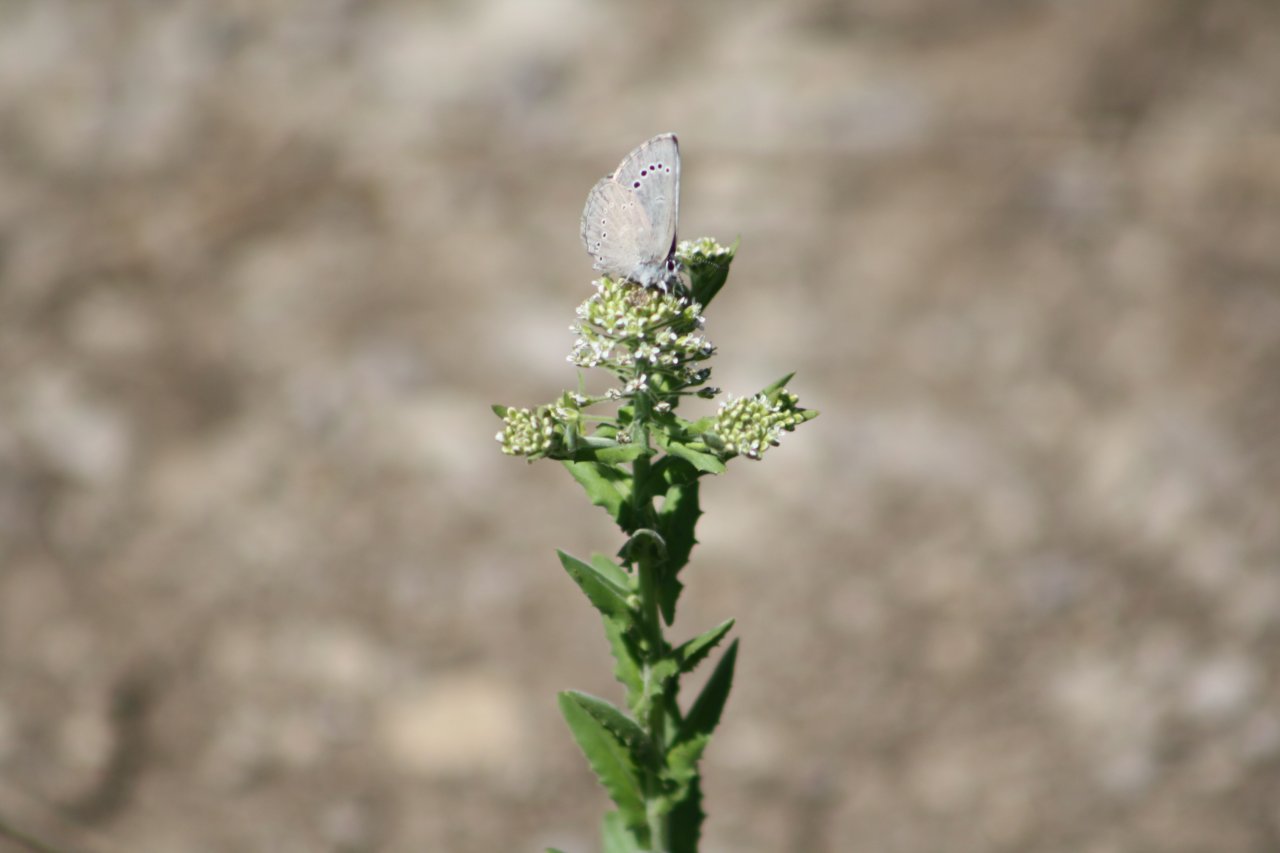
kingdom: Animalia
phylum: Arthropoda
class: Insecta
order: Lepidoptera
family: Lycaenidae
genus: Glaucopsyche
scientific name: Glaucopsyche lygdamus
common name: Silvery Blue
